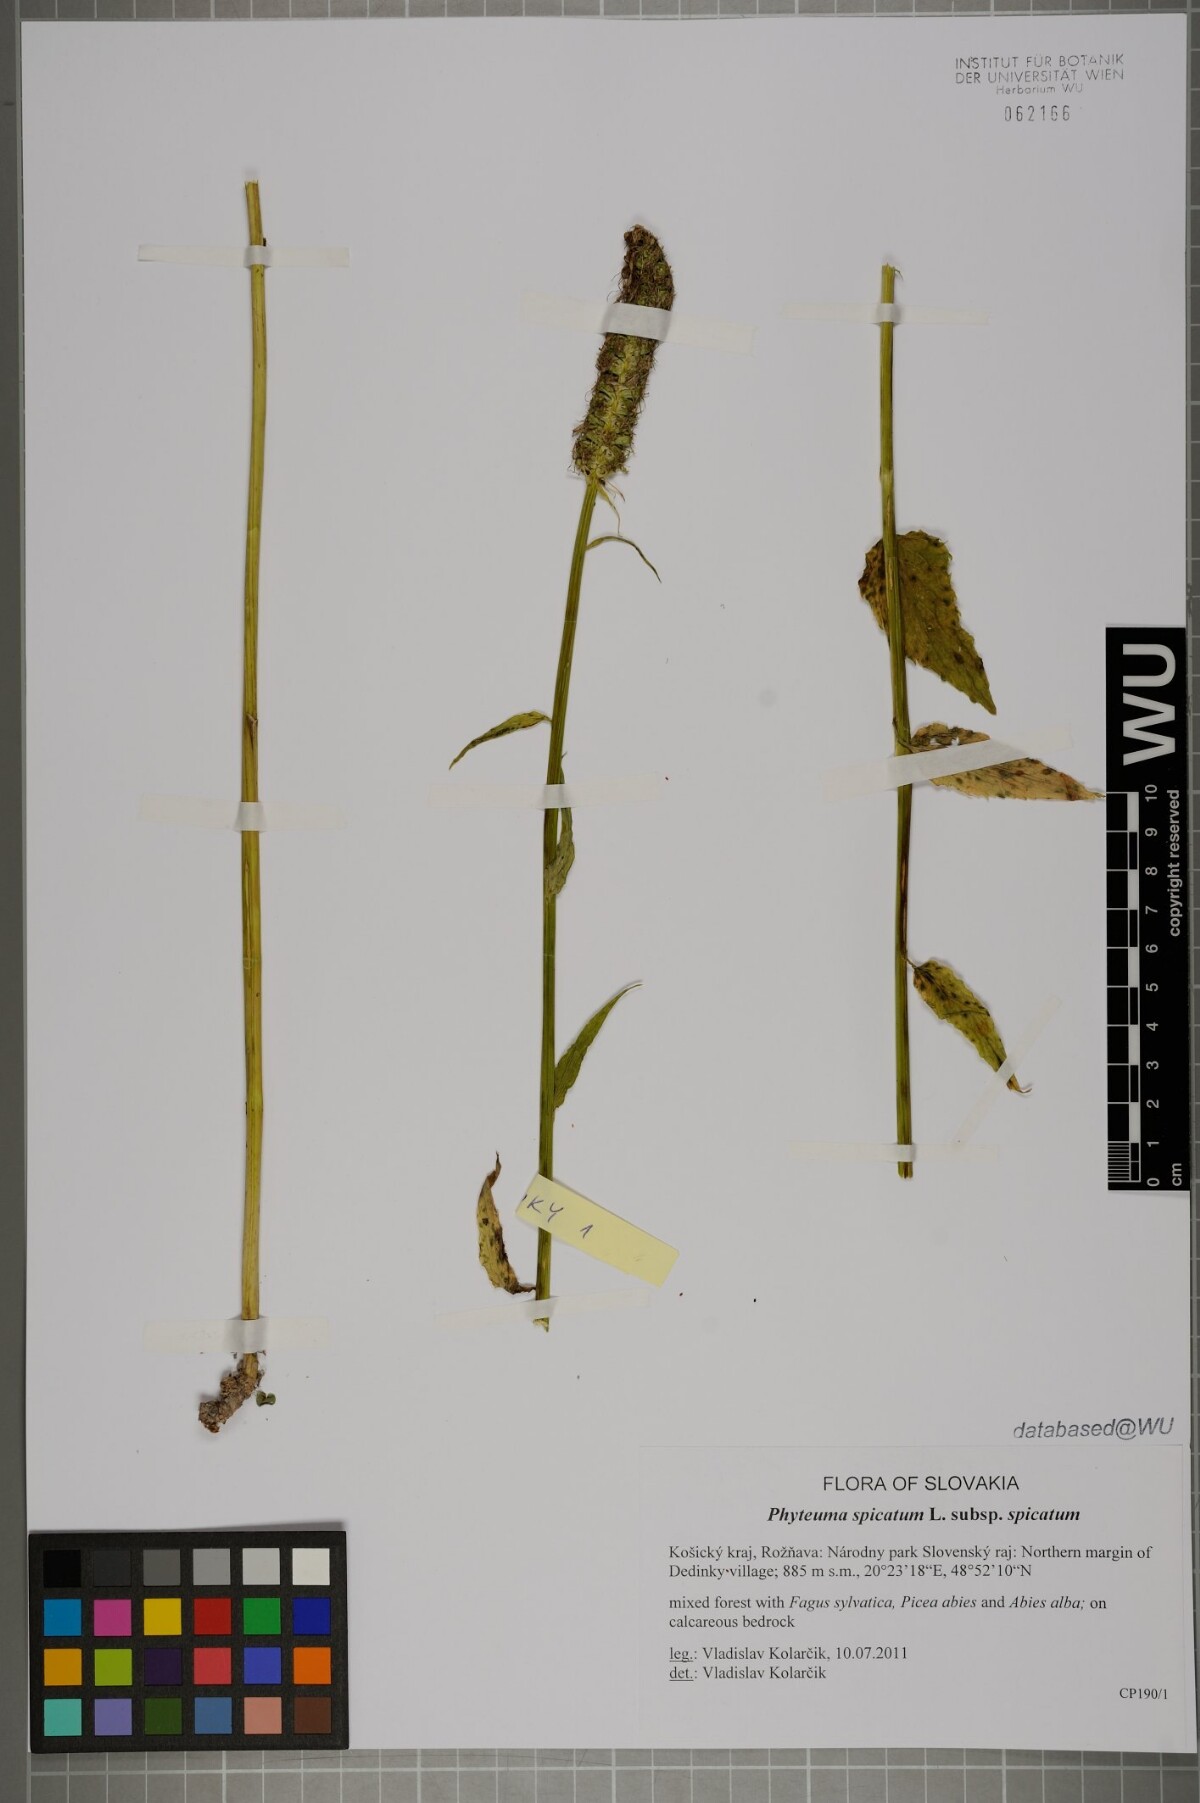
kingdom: Plantae
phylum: Tracheophyta
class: Magnoliopsida
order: Asterales
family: Campanulaceae
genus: Phyteuma
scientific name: Phyteuma spicatum
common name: Spiked rampion
